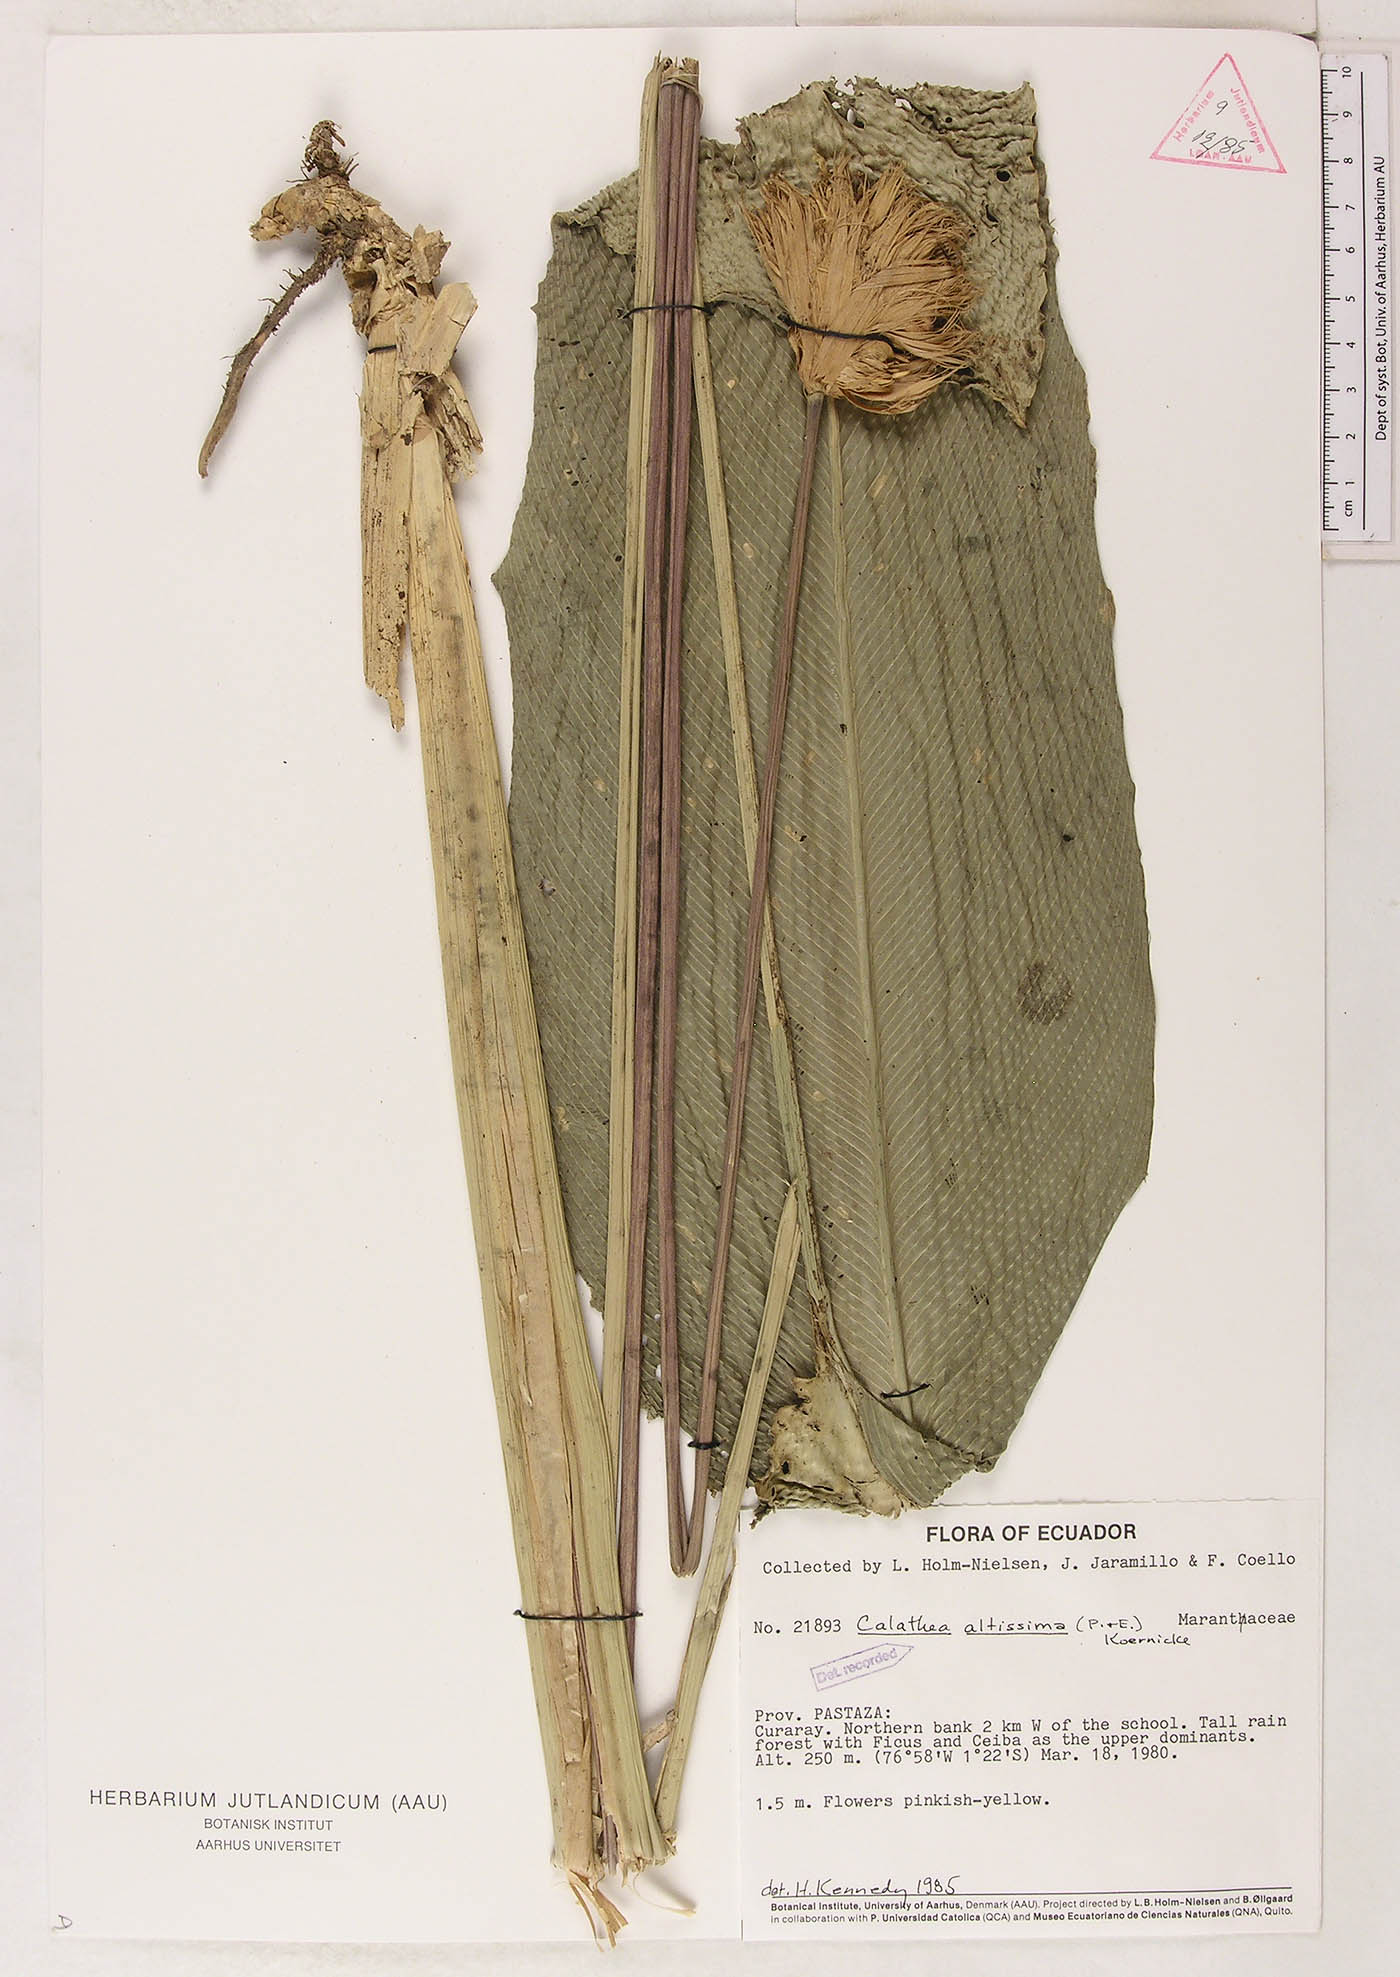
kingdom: Plantae
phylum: Tracheophyta
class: Liliopsida
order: Zingiberales
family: Marantaceae
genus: Goeppertia
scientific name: Goeppertia altissima
